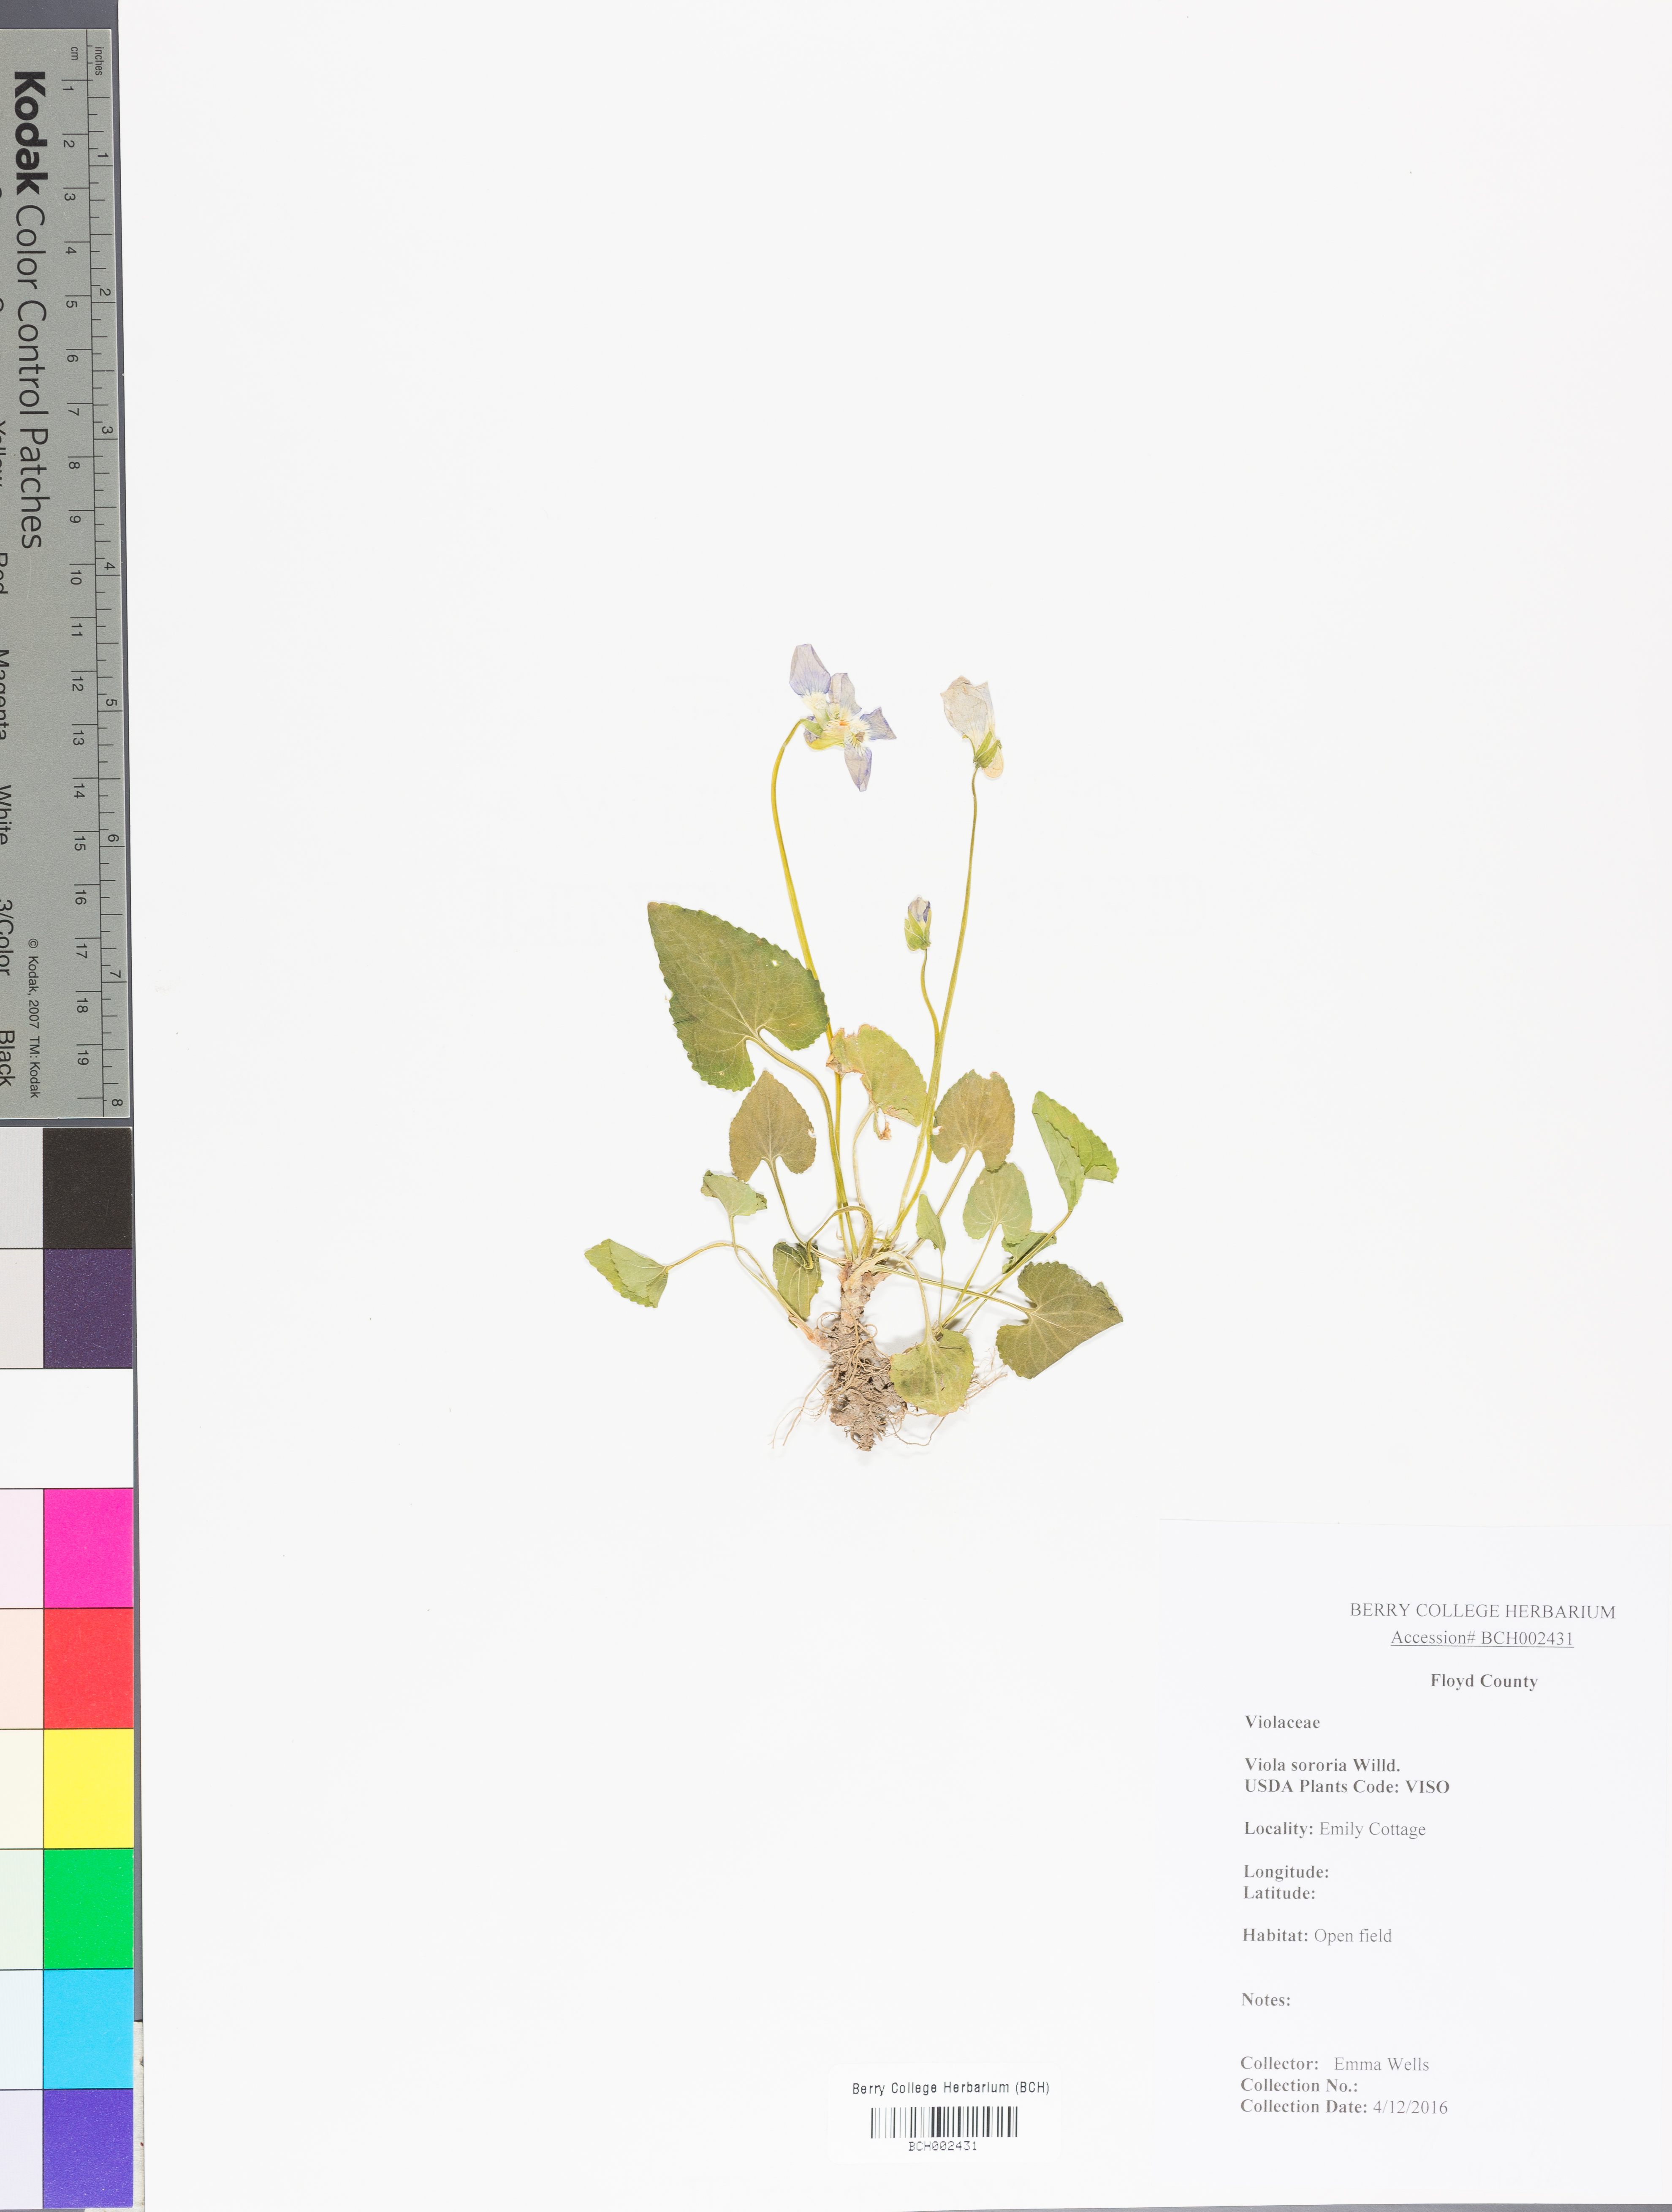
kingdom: Plantae
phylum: Tracheophyta
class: Magnoliopsida
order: Malpighiales
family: Violaceae
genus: Viola
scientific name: Viola sororia
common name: Dooryard violet
